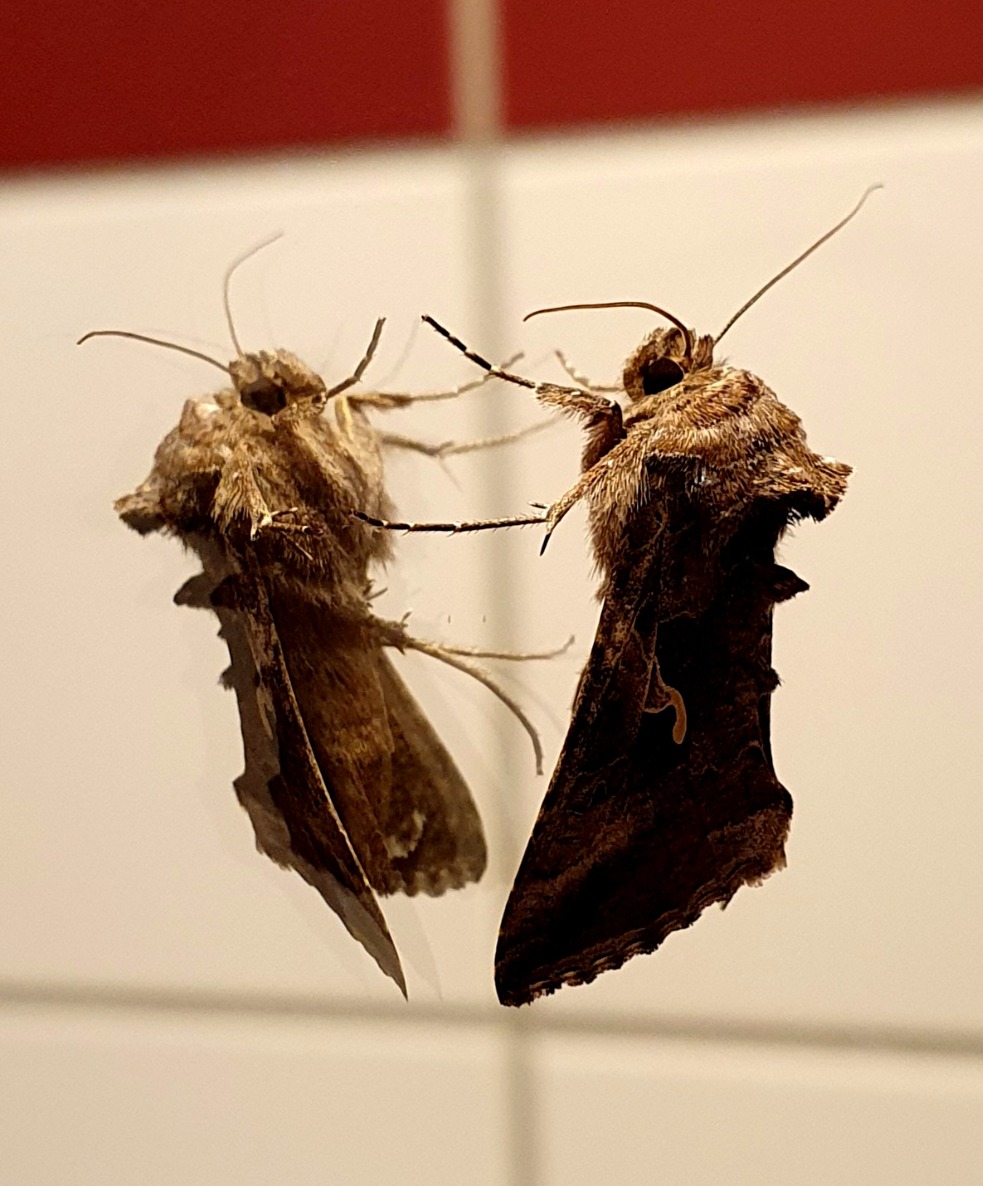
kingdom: Animalia
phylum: Arthropoda
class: Insecta
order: Lepidoptera
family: Noctuidae
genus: Autographa
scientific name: Autographa gamma
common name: Gammaugle
